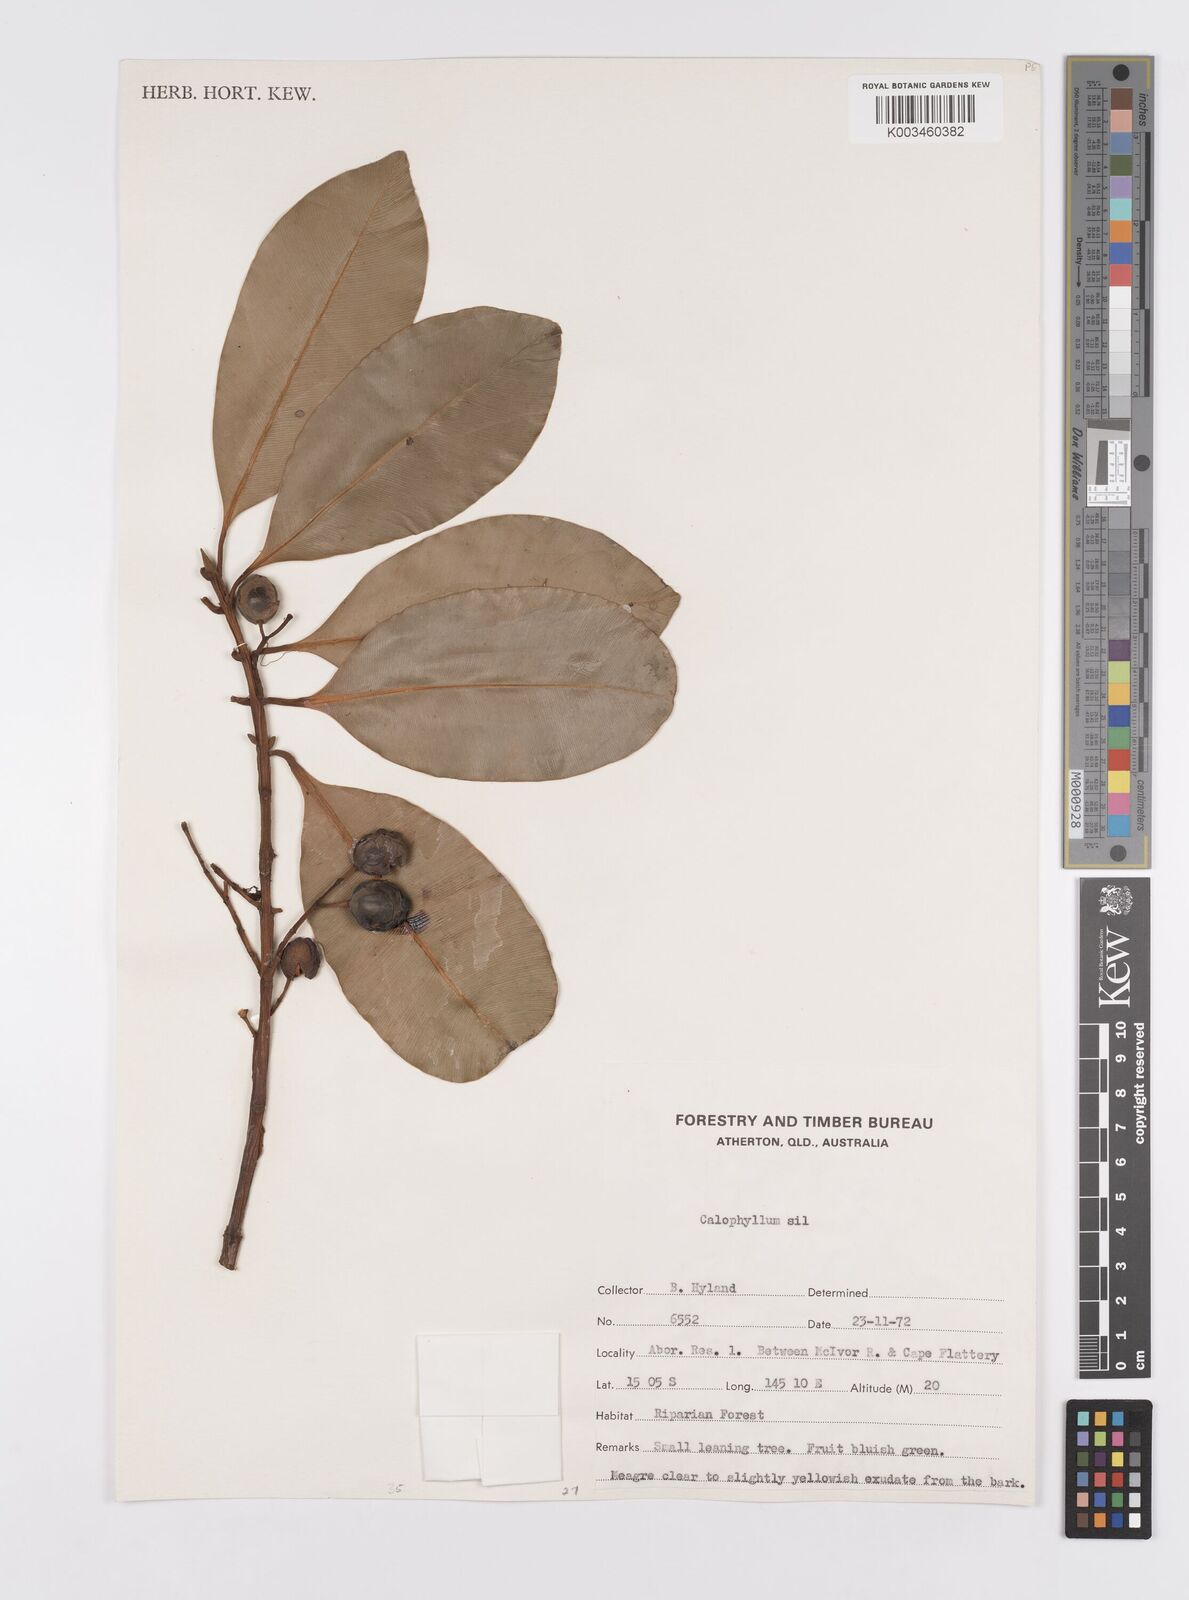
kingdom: Plantae
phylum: Tracheophyta
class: Magnoliopsida
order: Malpighiales
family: Calophyllaceae
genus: Calophyllum
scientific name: Calophyllum sil
